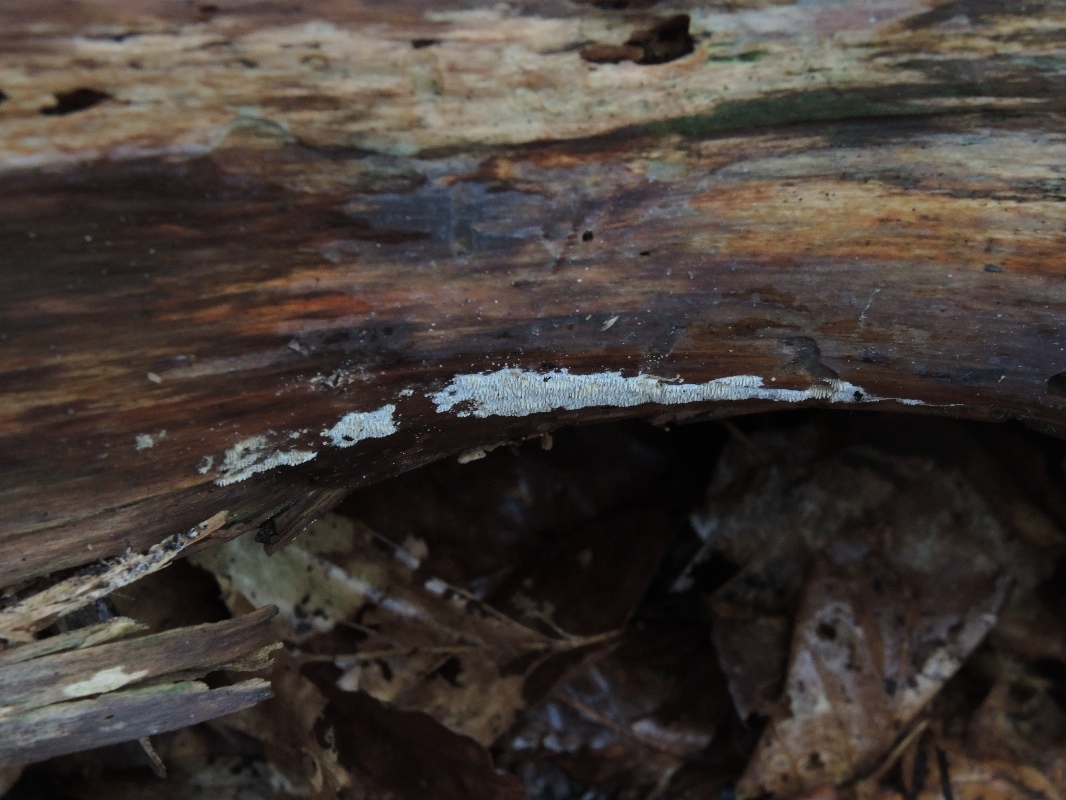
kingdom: Fungi
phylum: Basidiomycota
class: Agaricomycetes
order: Hymenochaetales
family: Schizoporaceae
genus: Xylodon
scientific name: Xylodon subtropicus
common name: labyrint-tandsvamp
